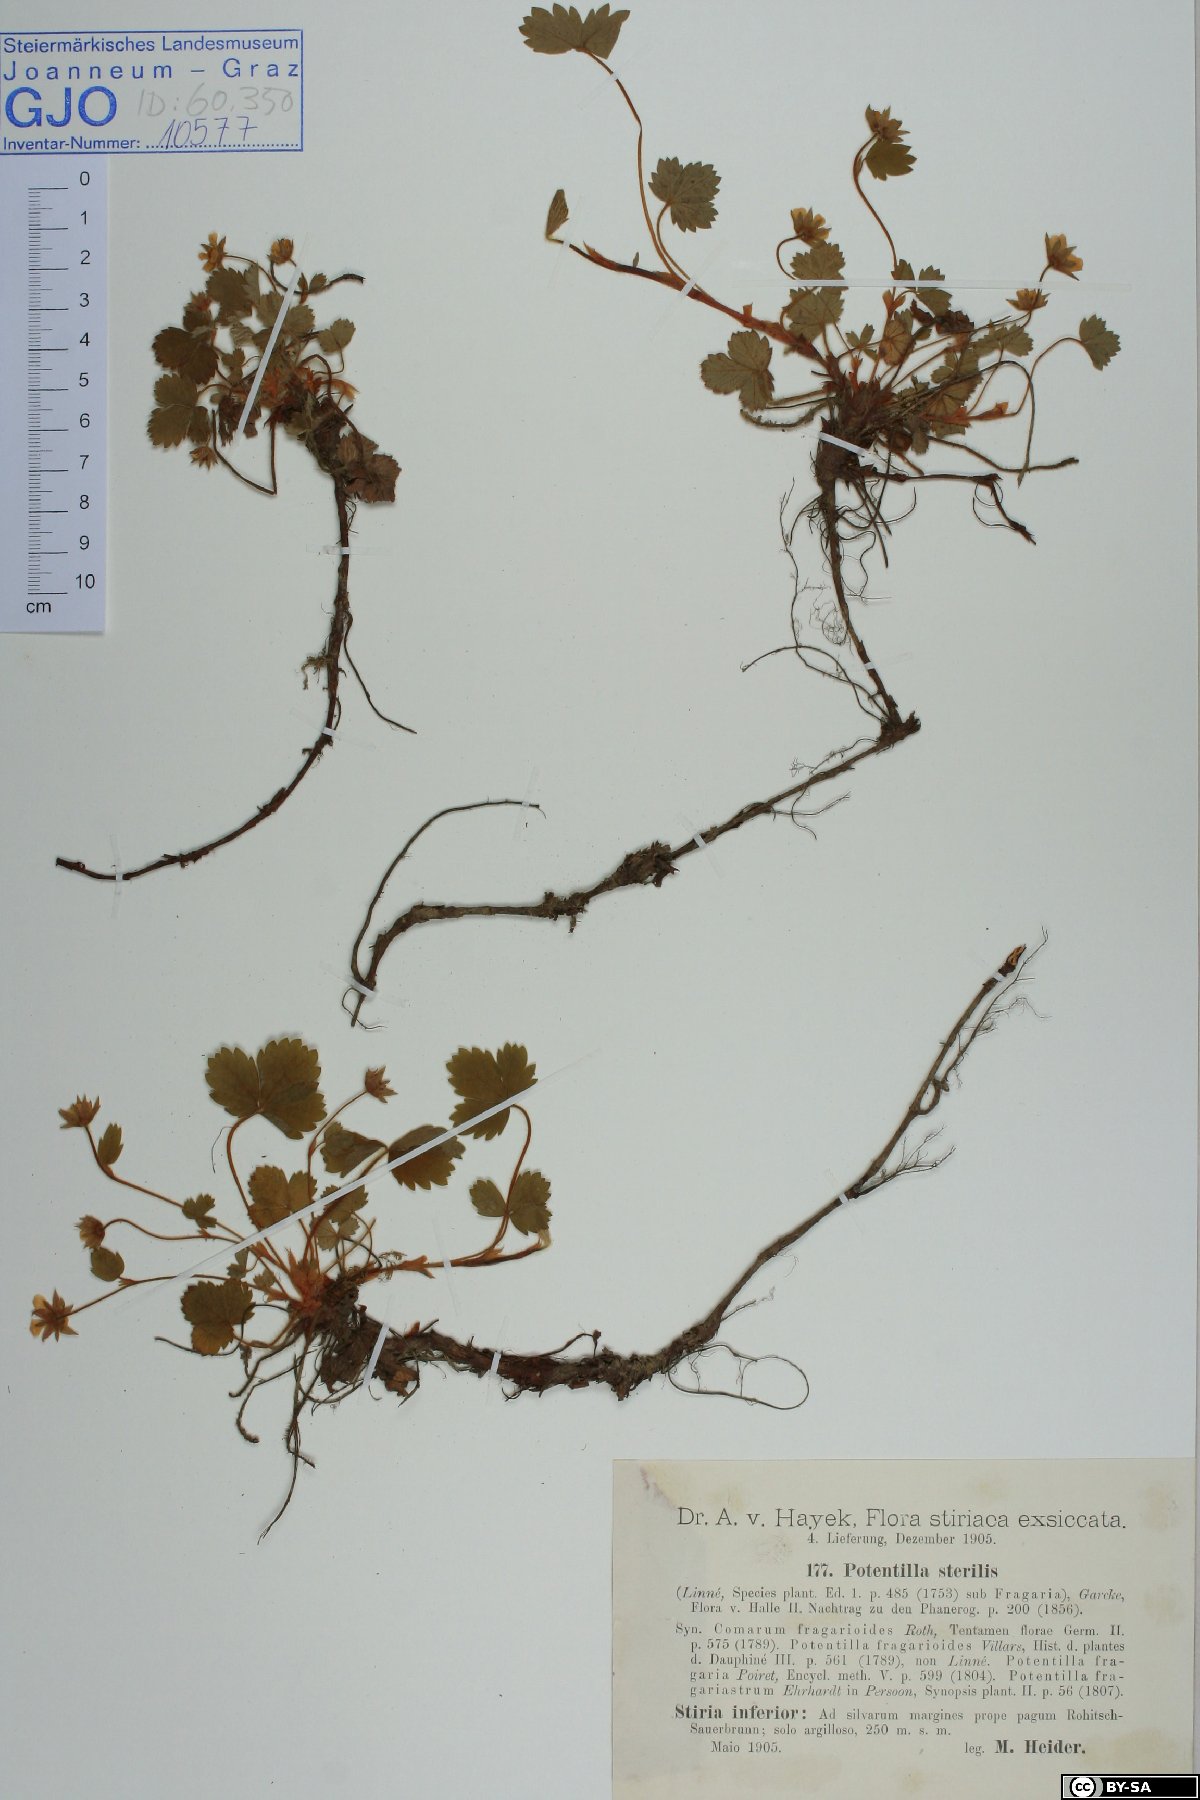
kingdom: Plantae
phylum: Tracheophyta
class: Magnoliopsida
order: Rosales
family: Rosaceae
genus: Potentilla
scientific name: Potentilla sterilis
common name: Barren strawberry
